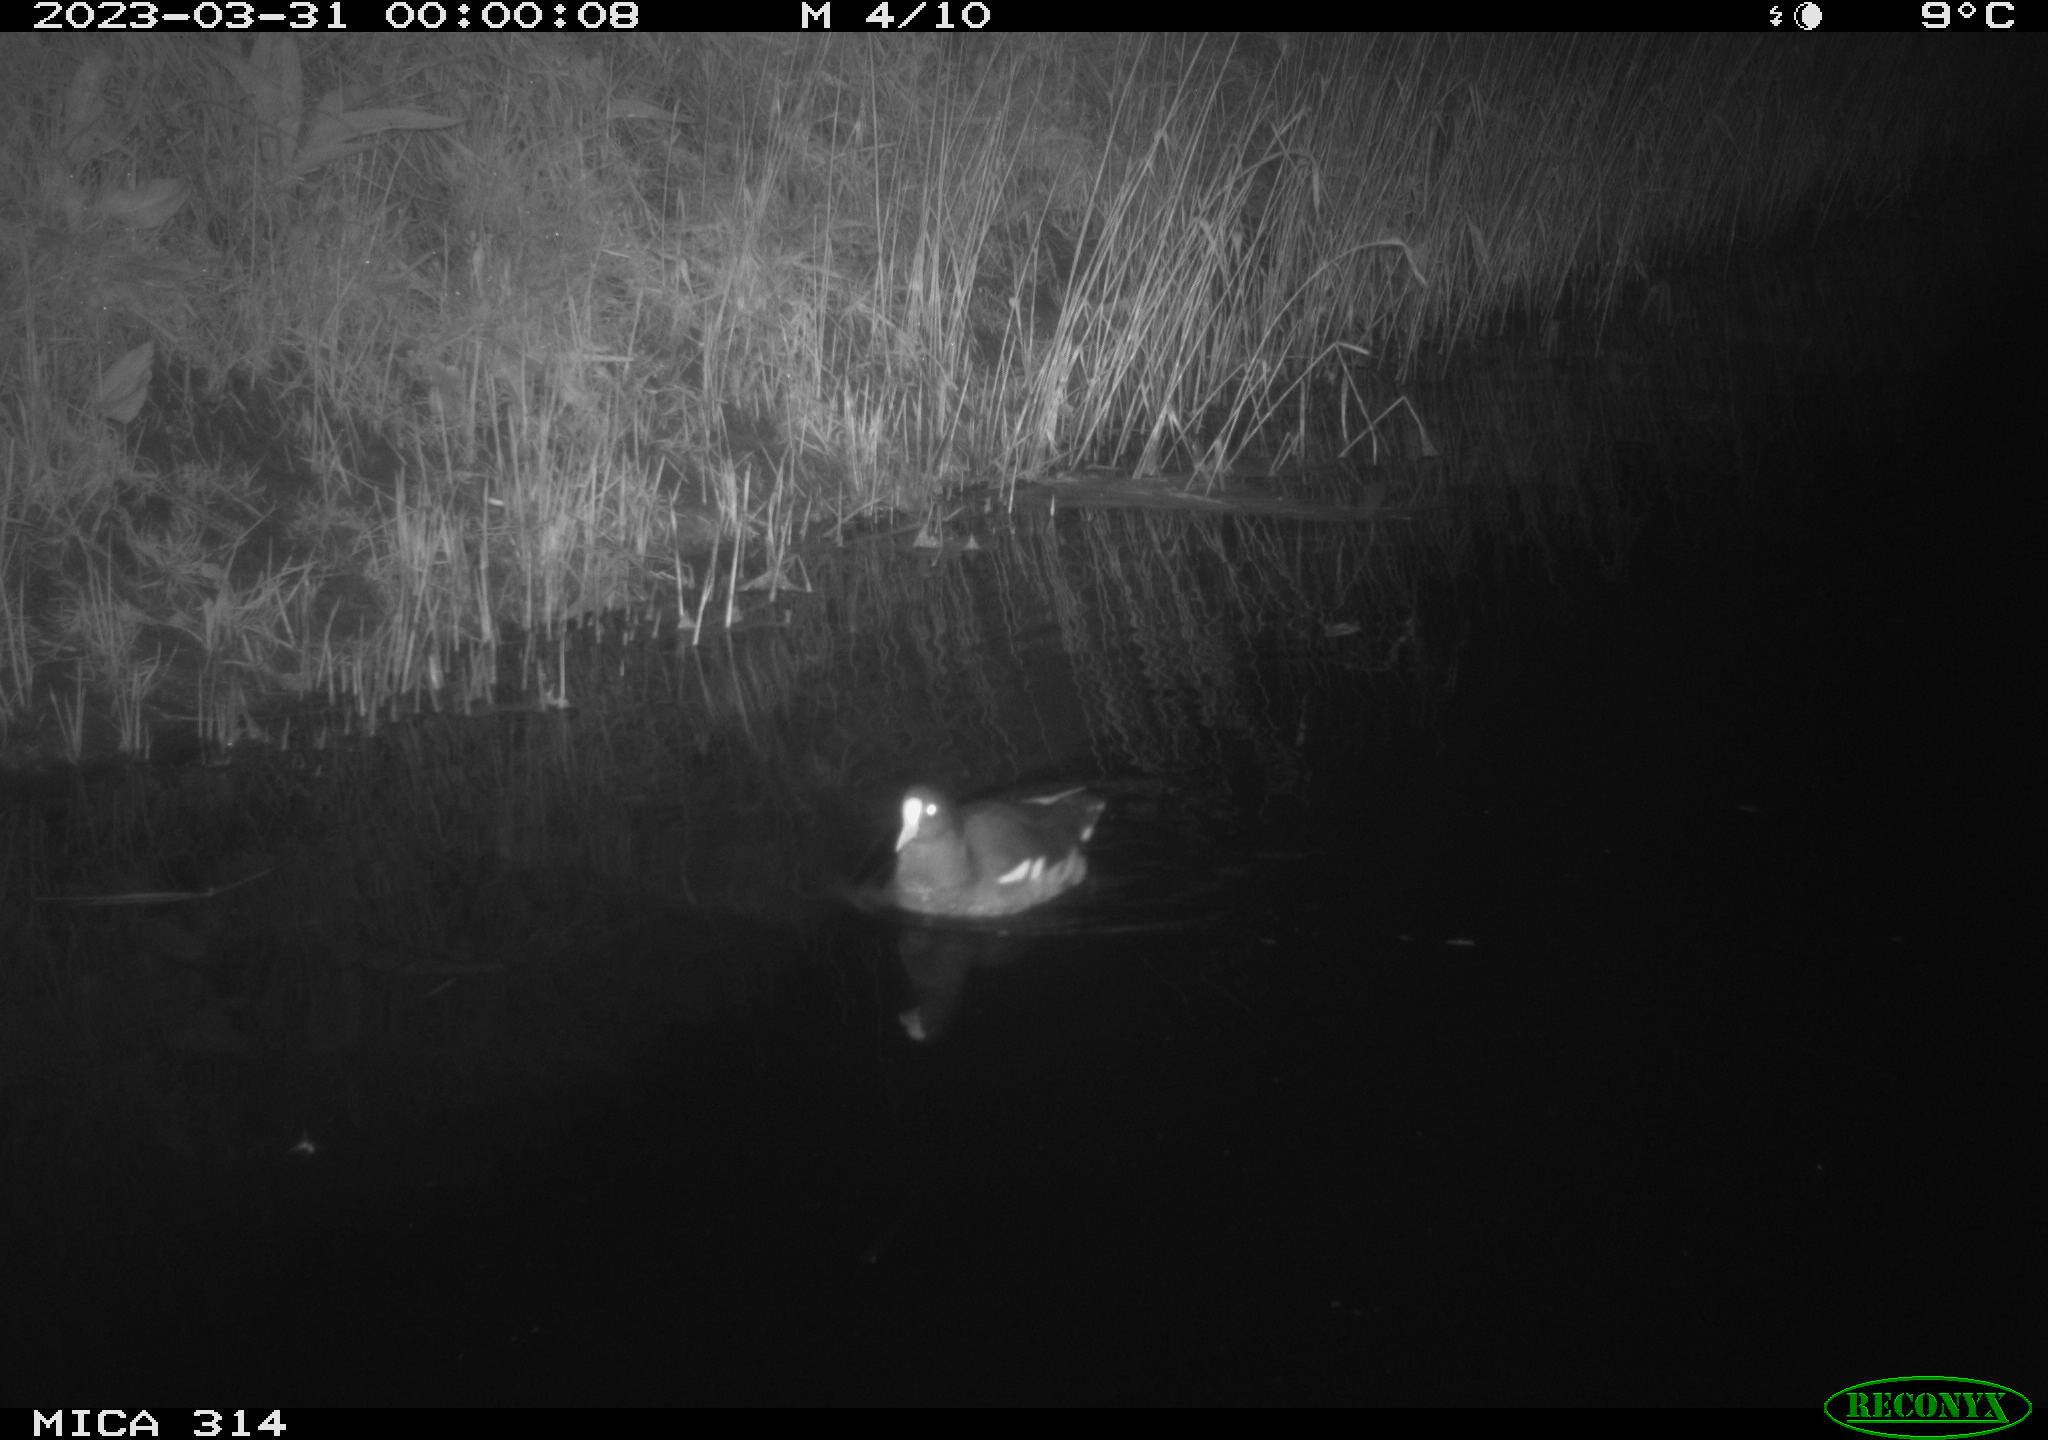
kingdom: Animalia
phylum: Chordata
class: Aves
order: Gruiformes
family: Rallidae
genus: Gallinula
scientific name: Gallinula chloropus
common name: Common moorhen
